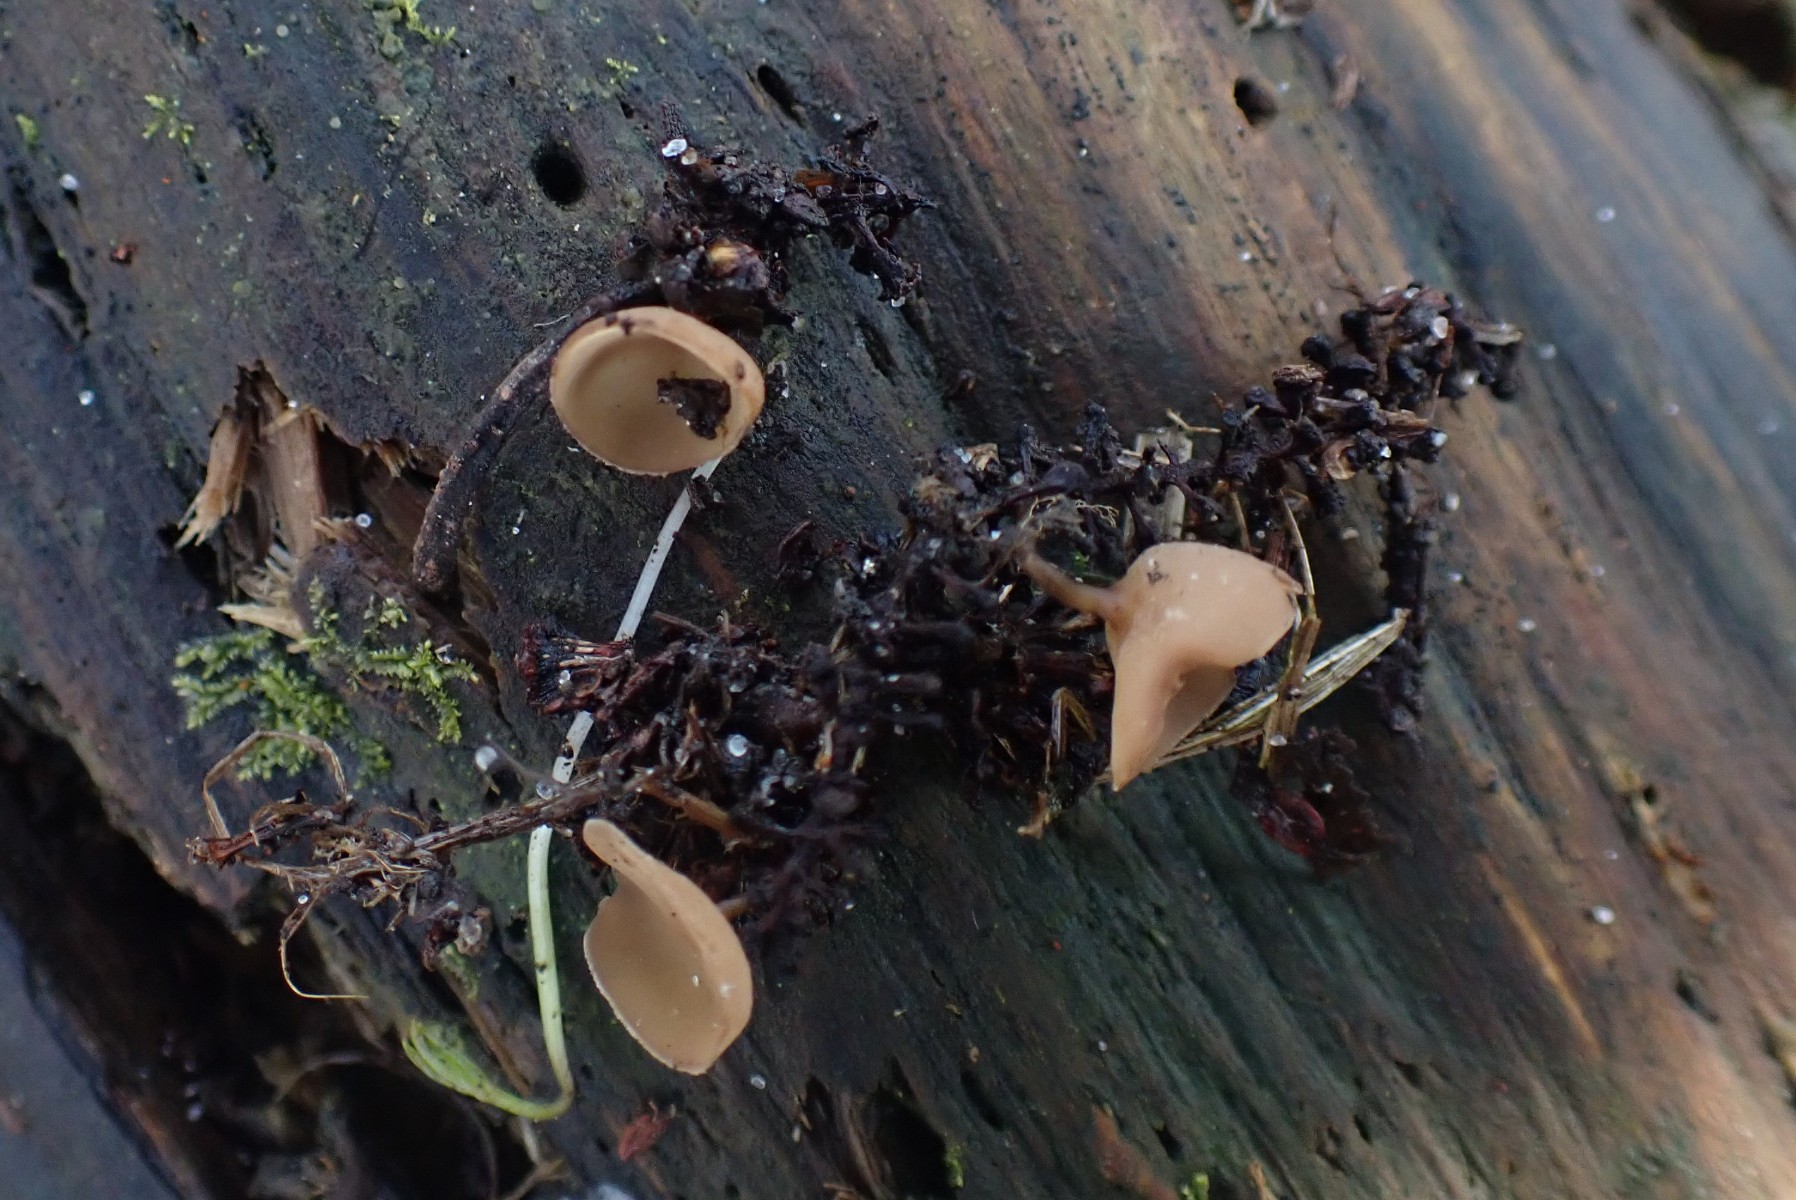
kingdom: Fungi
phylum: Ascomycota
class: Leotiomycetes
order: Helotiales
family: Sclerotiniaceae
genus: Ciboria
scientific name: Ciboria amentacea
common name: ellerakle-knoldskive
